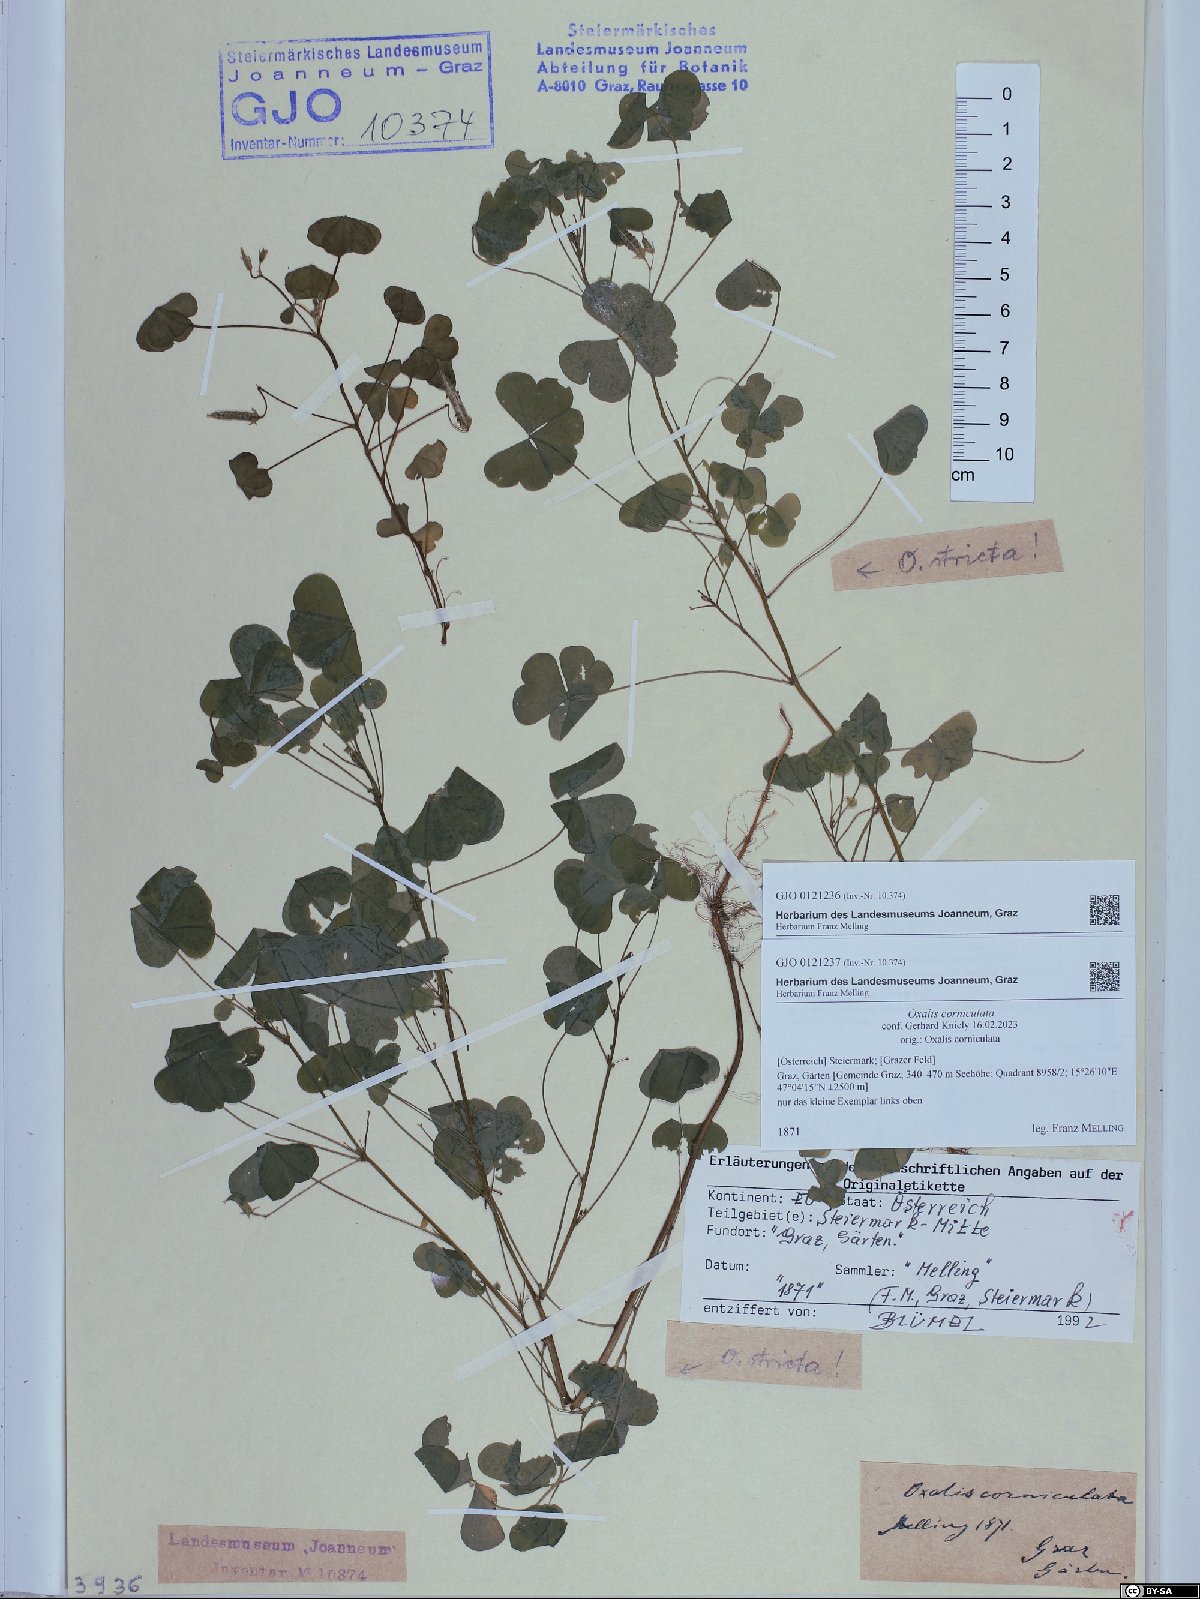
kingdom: Plantae
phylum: Tracheophyta
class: Magnoliopsida
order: Oxalidales
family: Oxalidaceae
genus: Oxalis
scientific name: Oxalis stricta
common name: Upright yellow-sorrel
